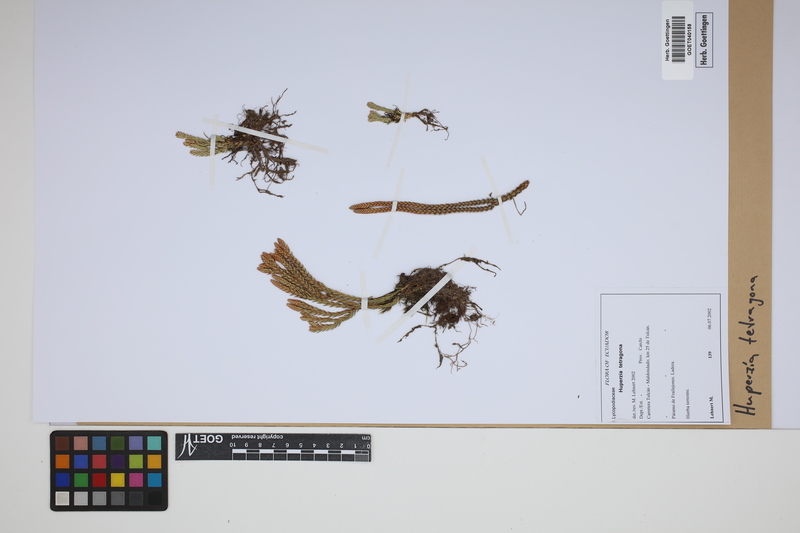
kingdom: Plantae
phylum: Tracheophyta
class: Lycopodiopsida
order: Lycopodiales
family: Lycopodiaceae
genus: Phlegmariurus
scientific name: Phlegmariurus tetragonus
